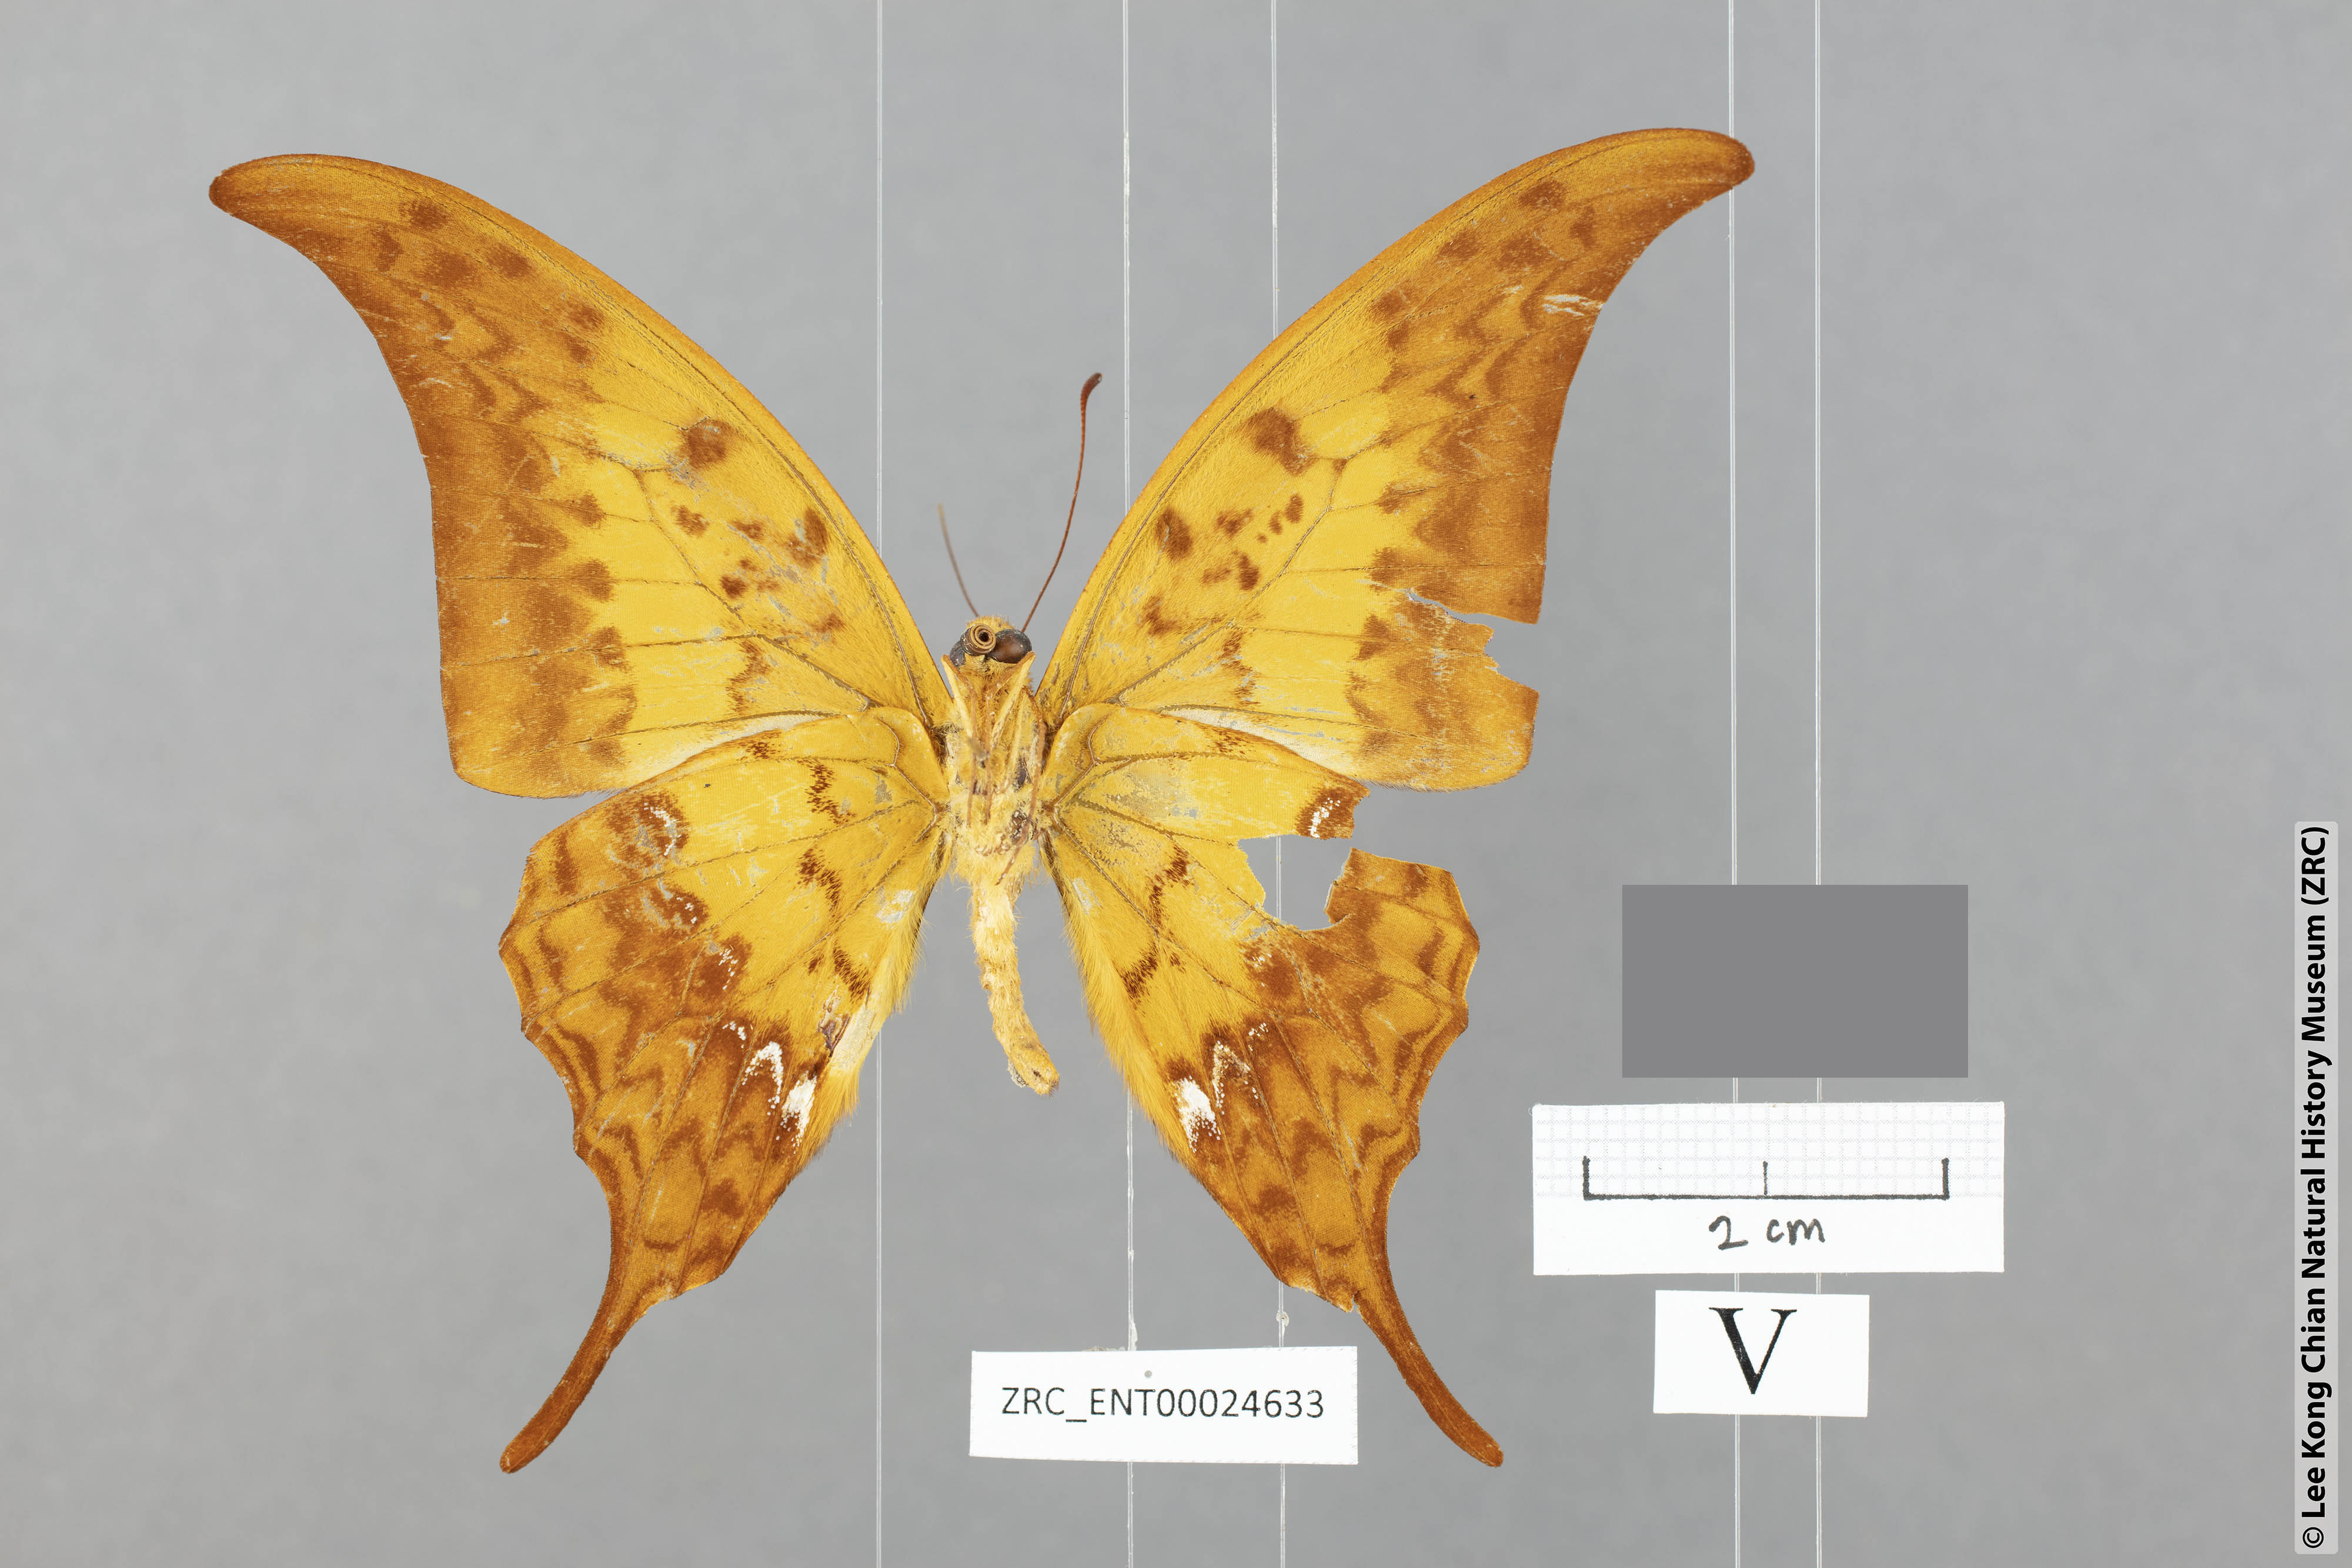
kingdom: Animalia
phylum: Arthropoda
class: Insecta
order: Lepidoptera
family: Papilionidae
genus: Meandrusa
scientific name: Meandrusa payeni
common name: Outlet sword
